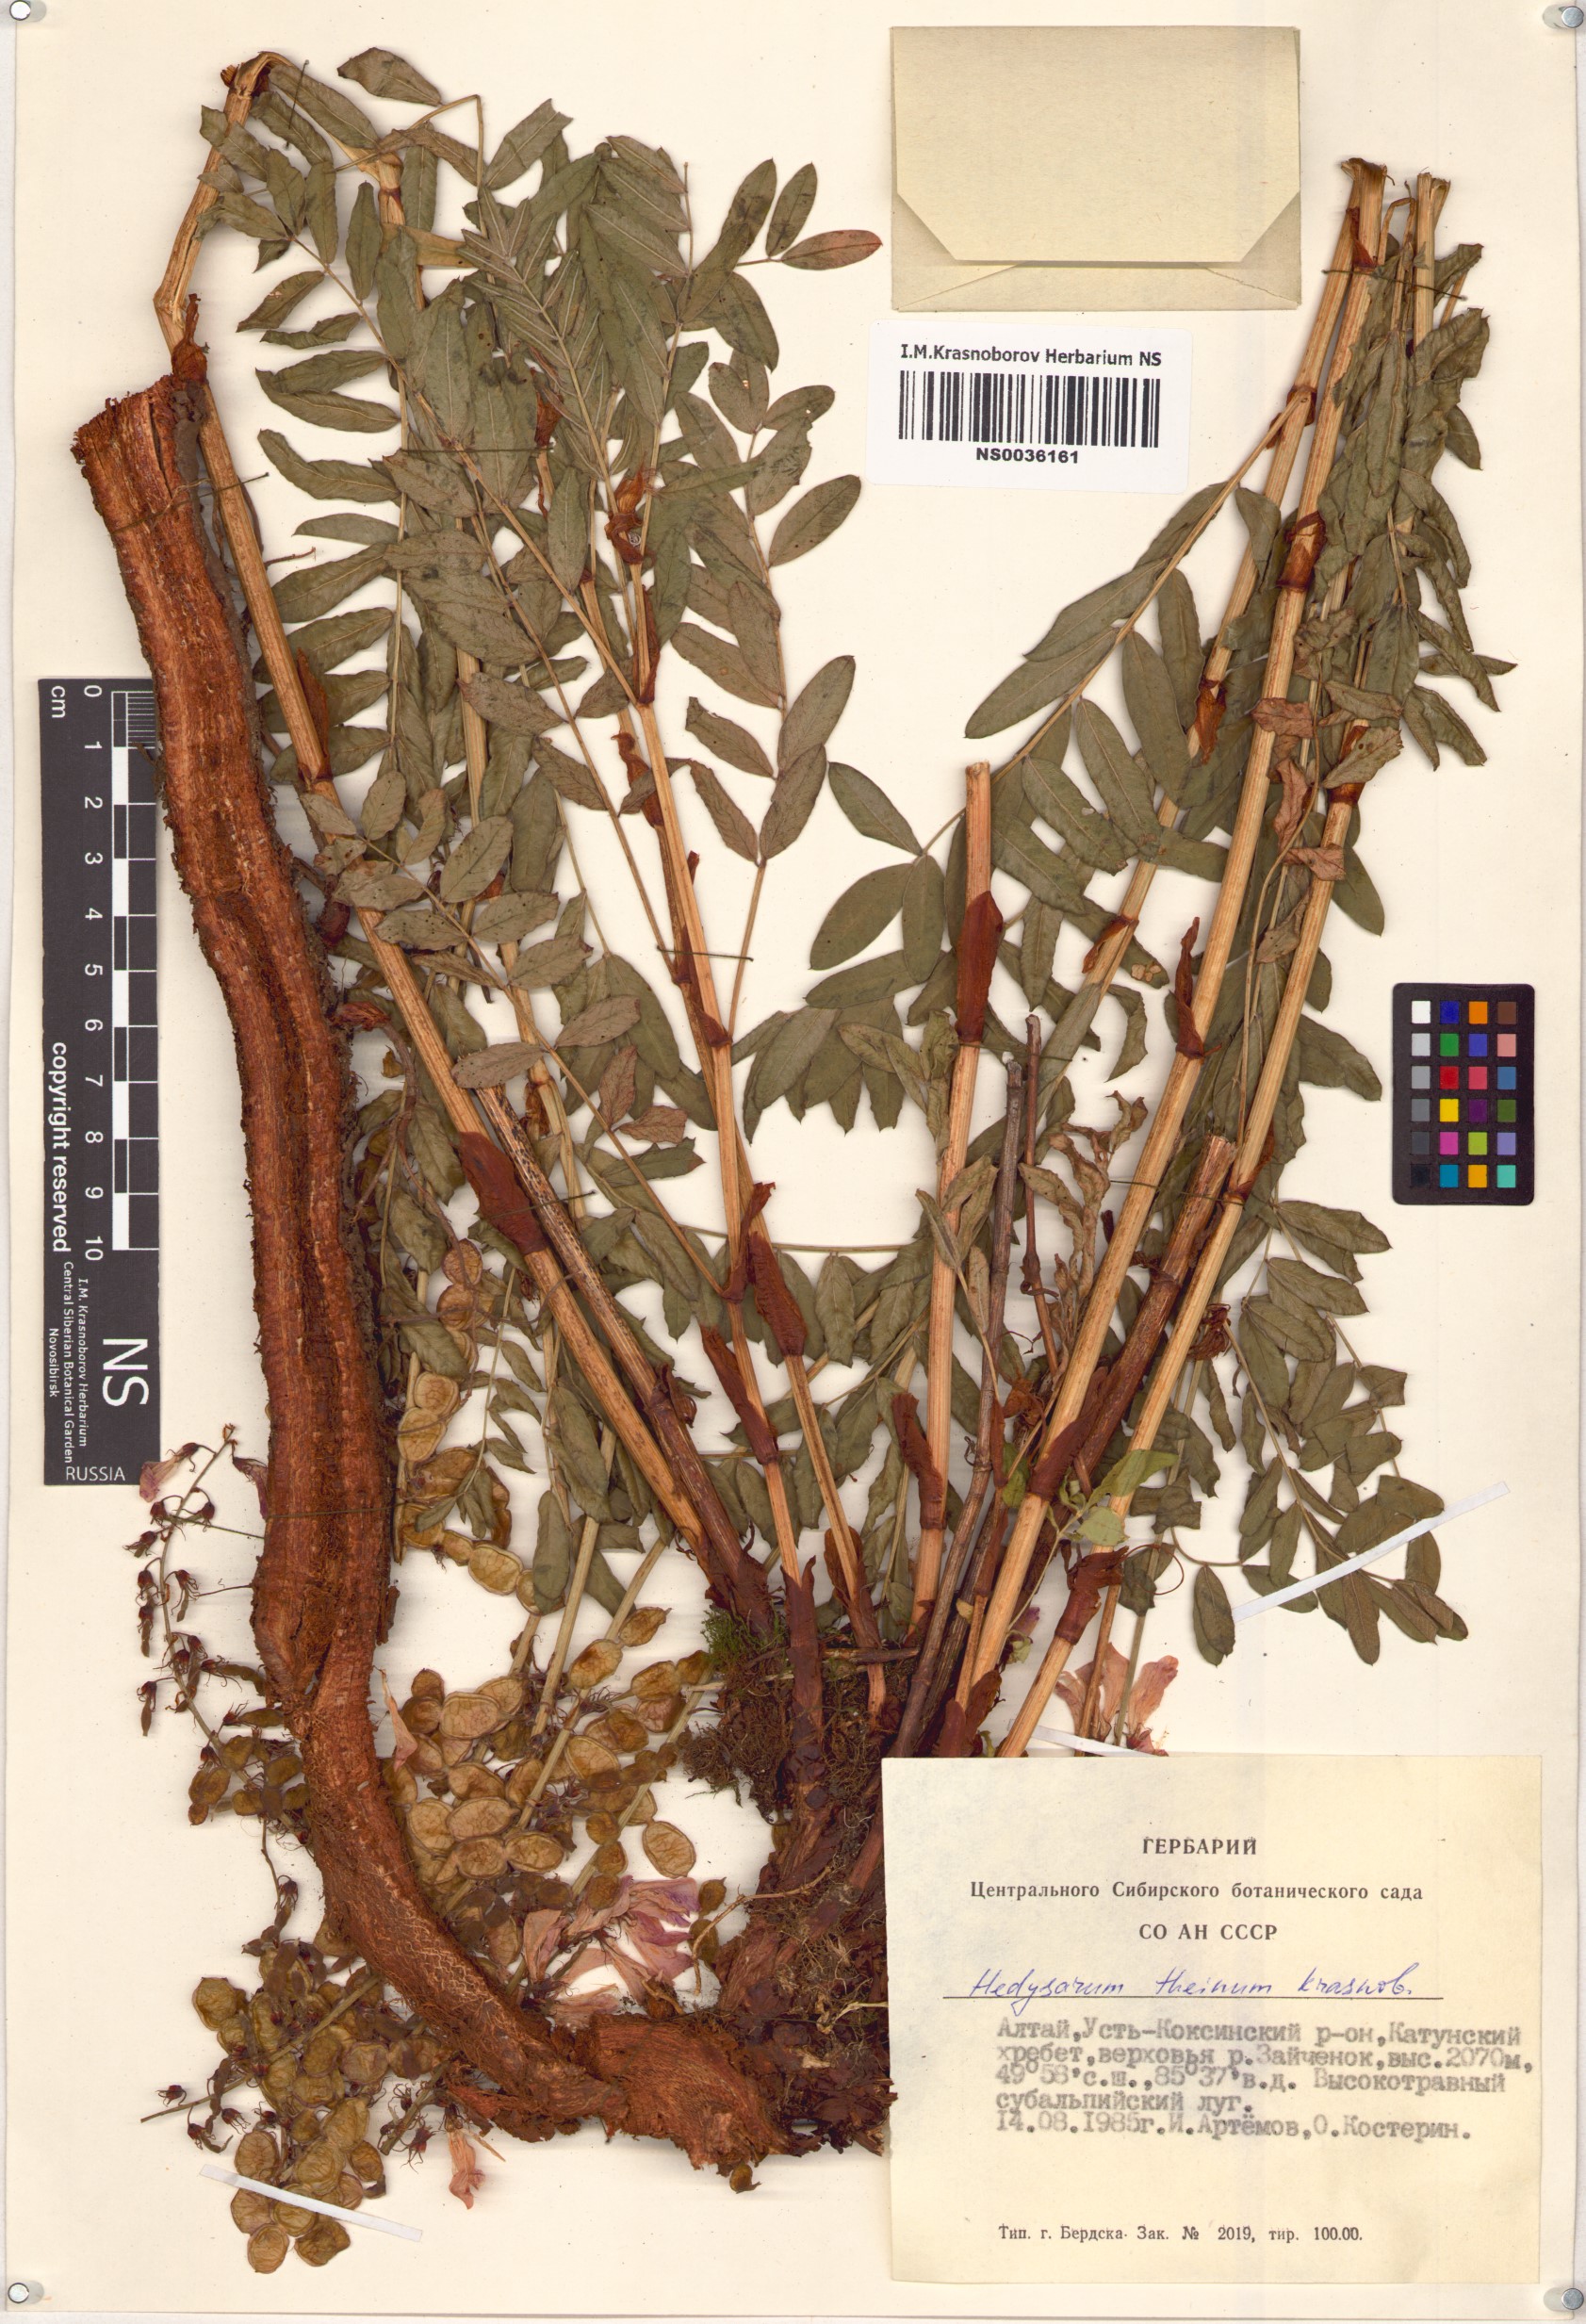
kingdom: Plantae
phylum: Tracheophyta
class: Magnoliopsida
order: Fabales
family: Fabaceae
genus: Hedysarum
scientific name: Hedysarum theinum
